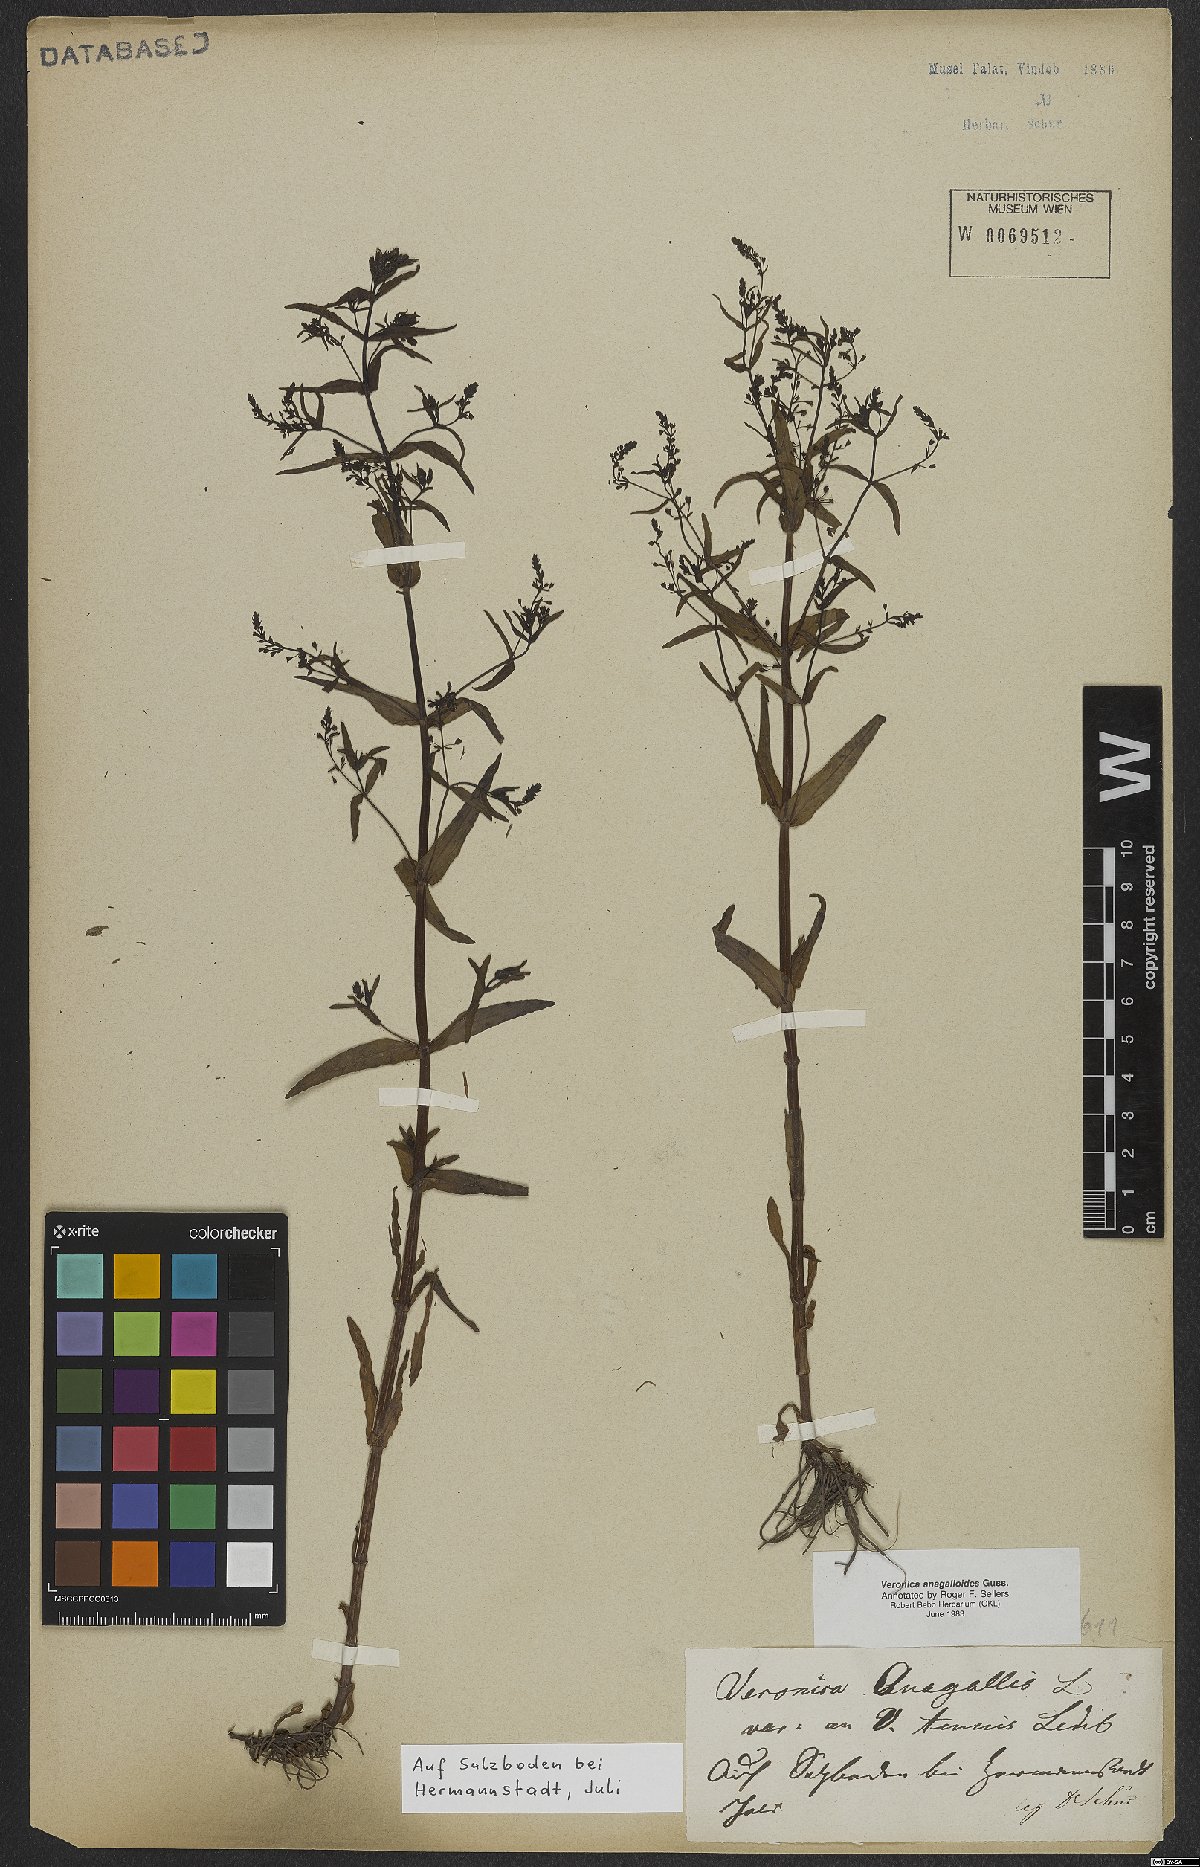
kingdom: Plantae
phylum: Tracheophyta
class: Magnoliopsida
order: Lamiales
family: Plantaginaceae
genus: Veronica
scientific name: Veronica anagalloides
